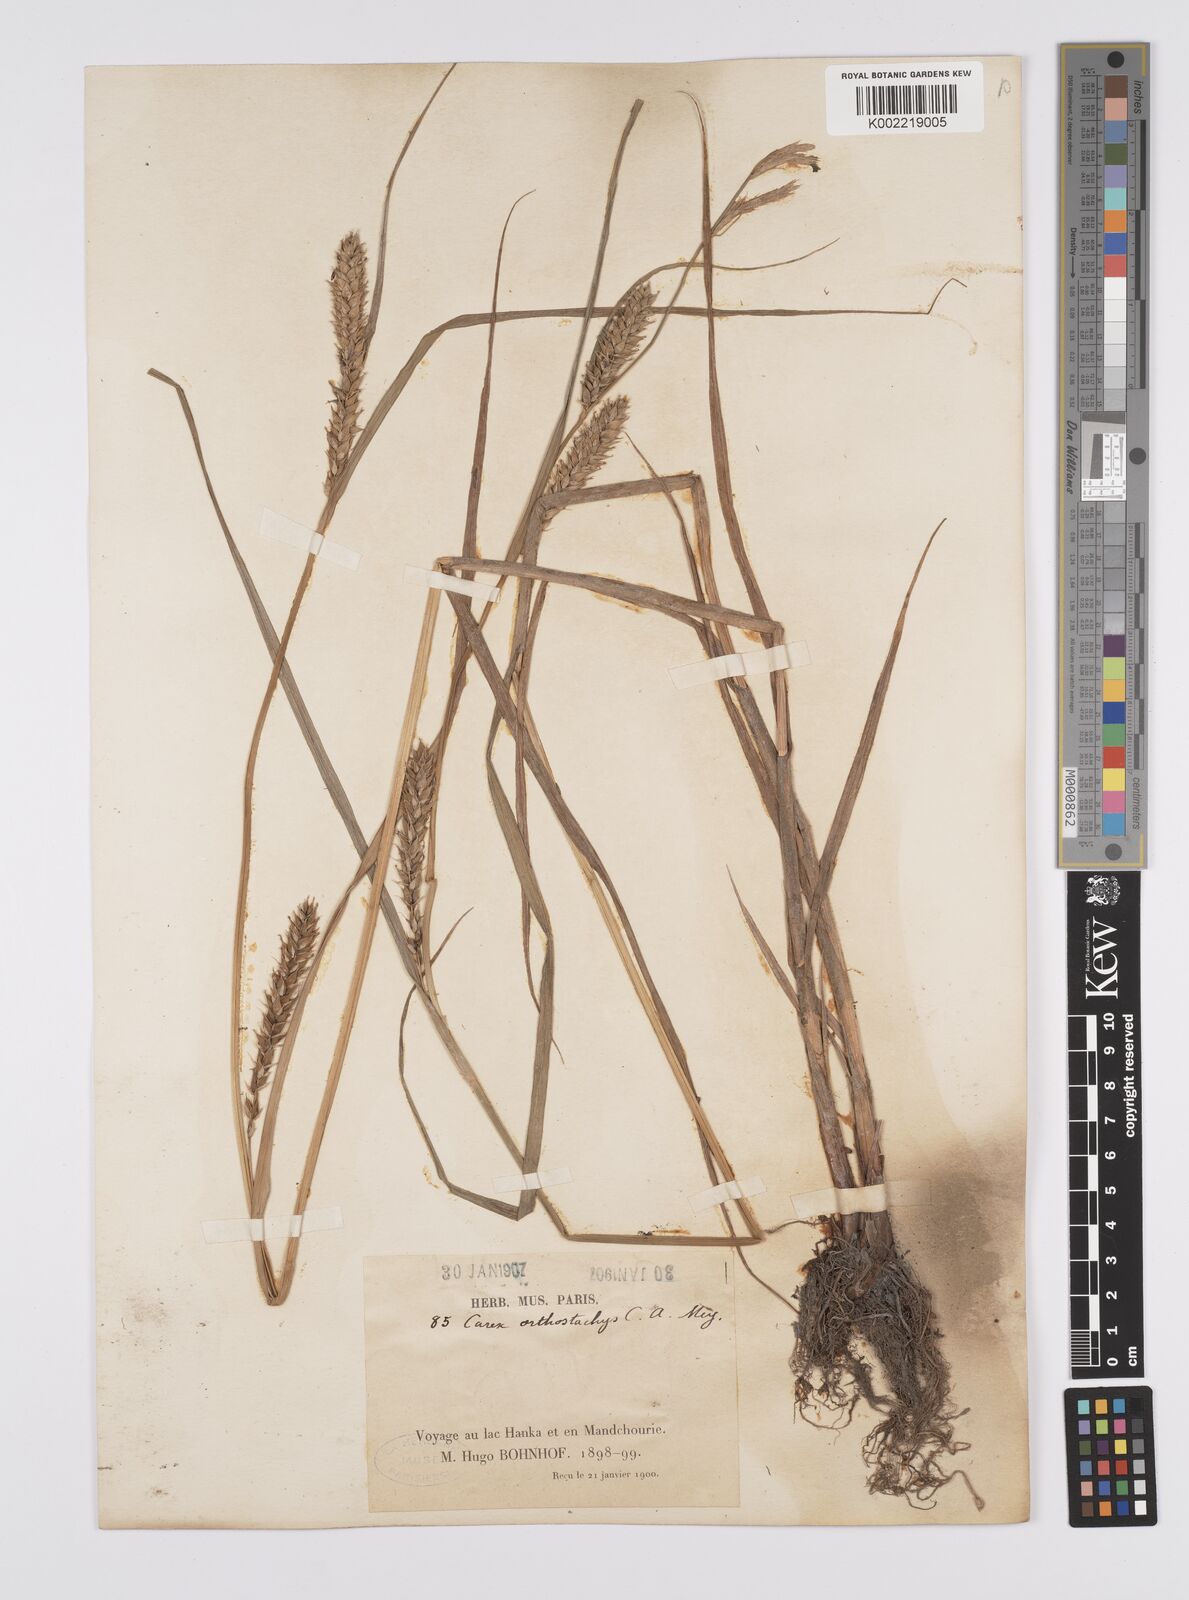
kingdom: Plantae
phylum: Tracheophyta
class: Liliopsida
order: Poales
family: Cyperaceae
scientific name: Cyperaceae
